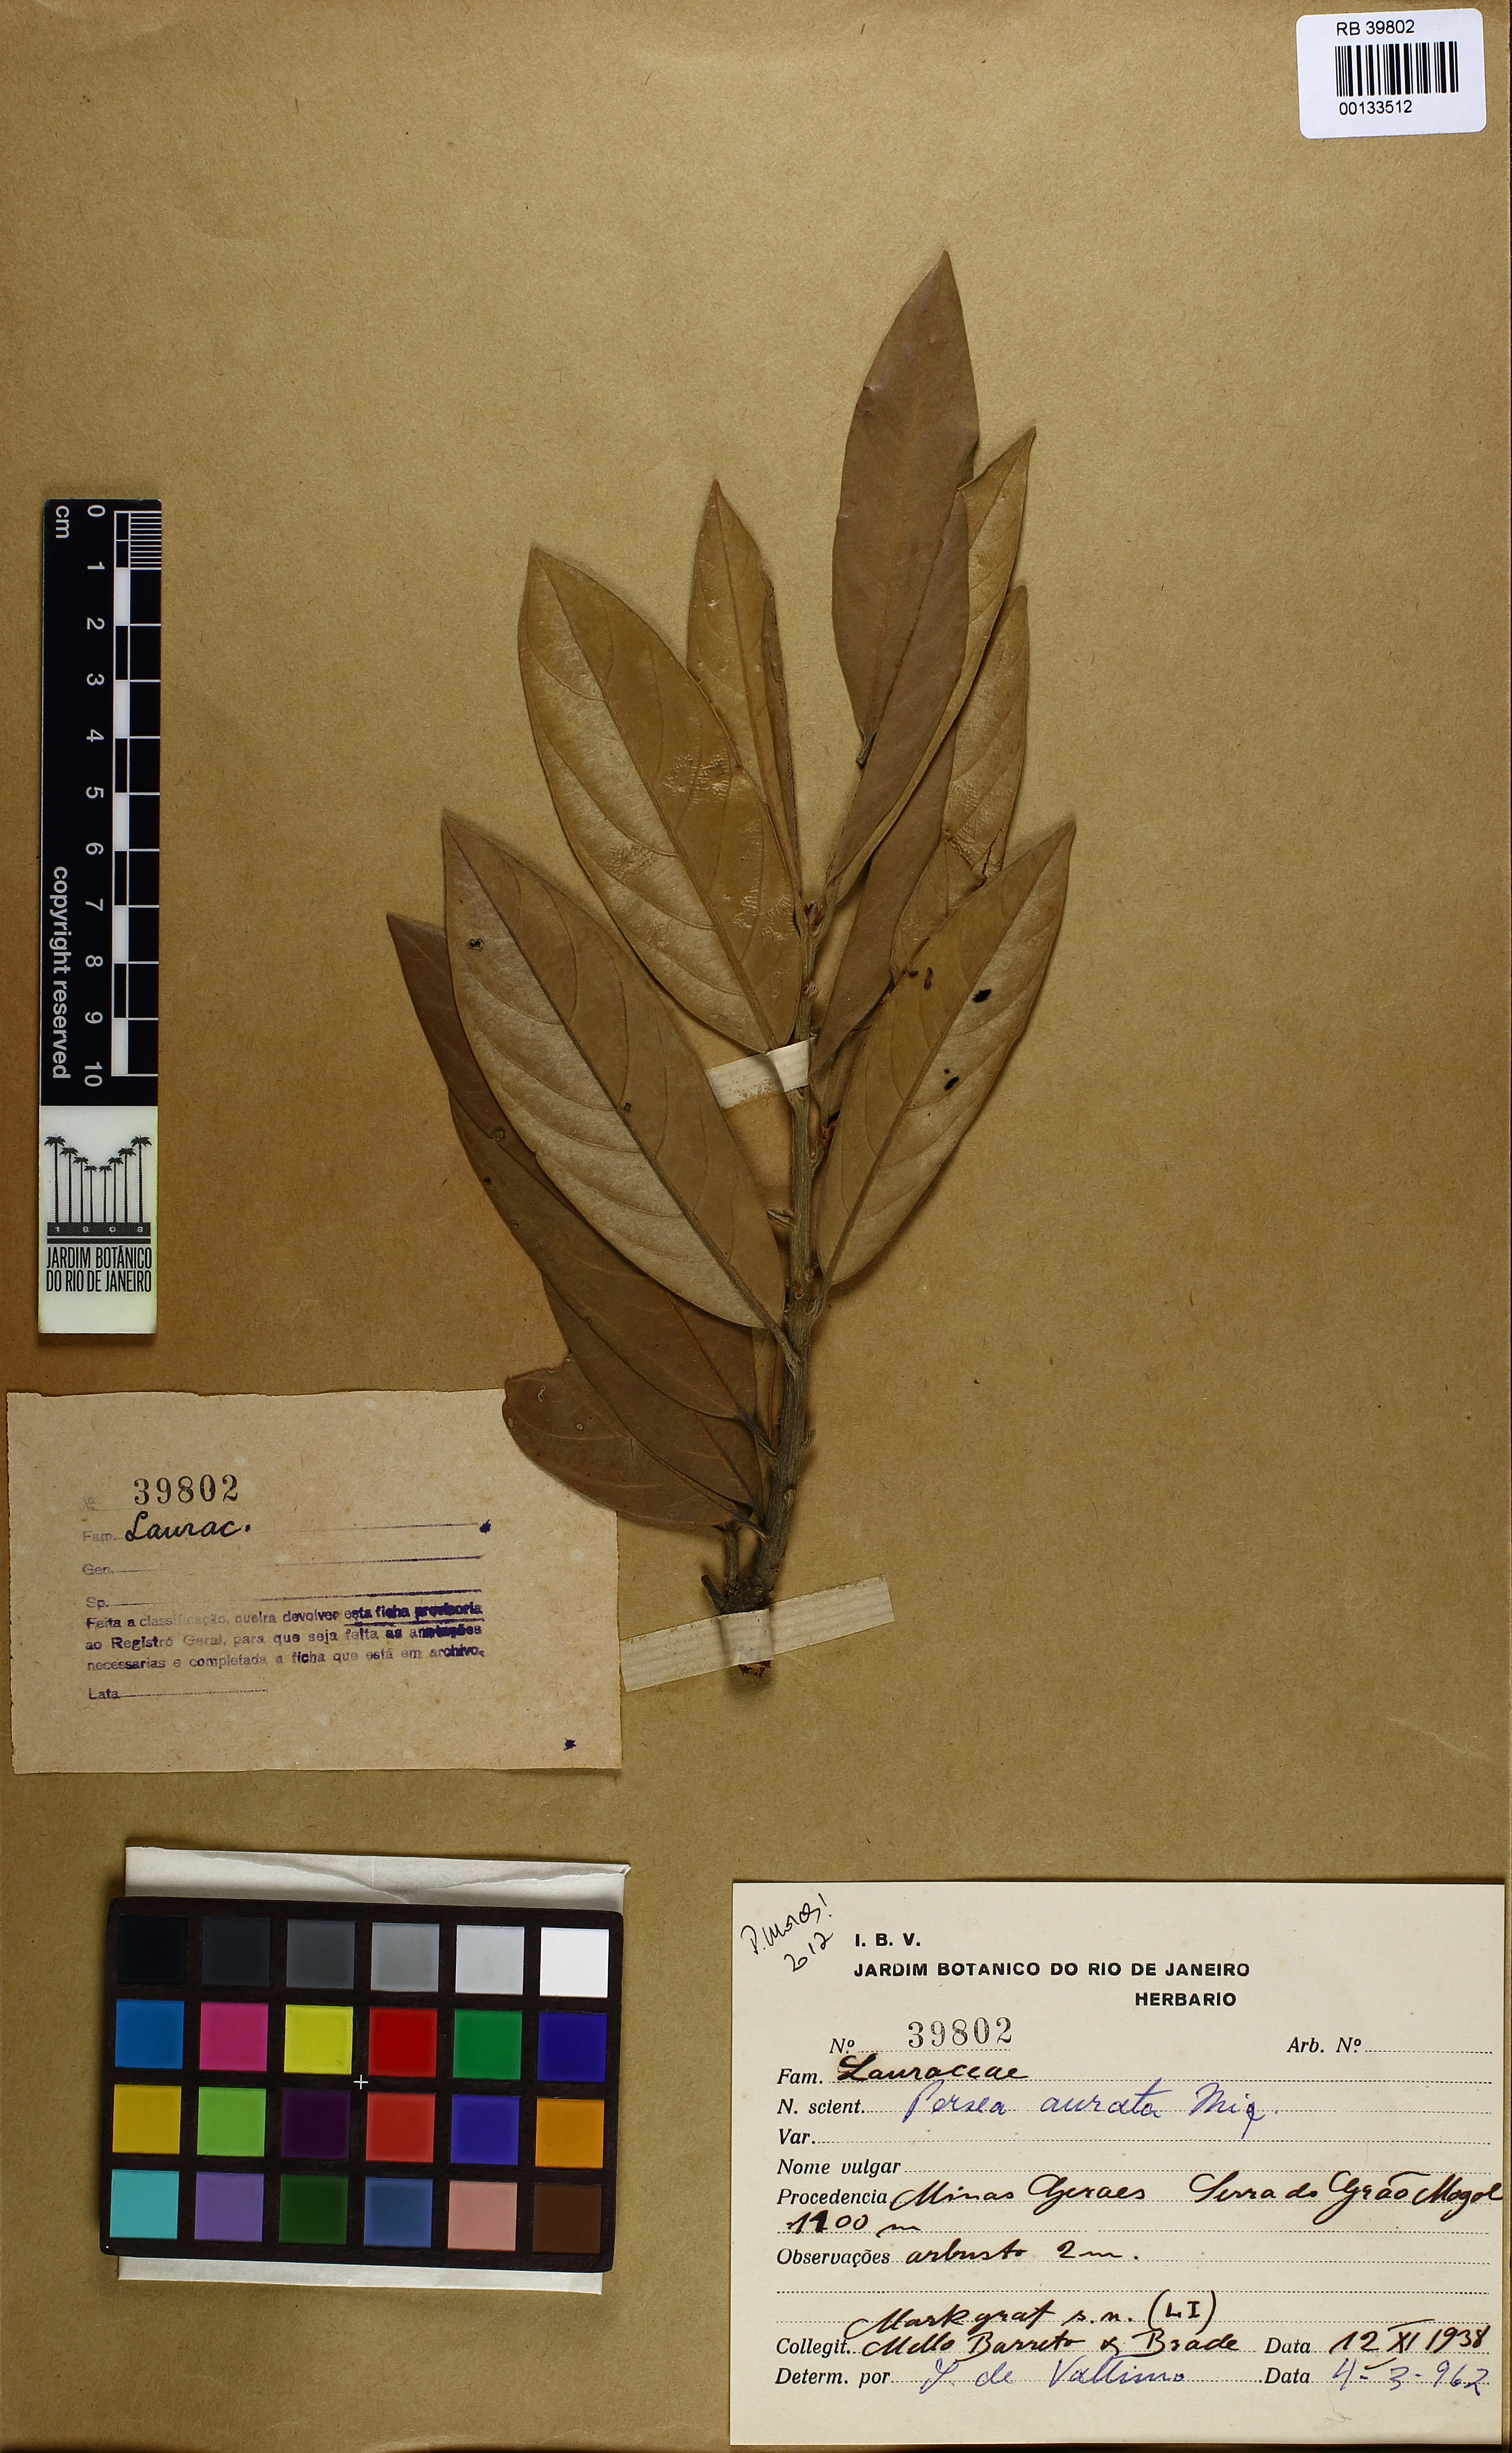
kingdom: Plantae
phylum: Tracheophyta
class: Magnoliopsida
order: Laurales
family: Lauraceae
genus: Persea
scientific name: Persea aurata
